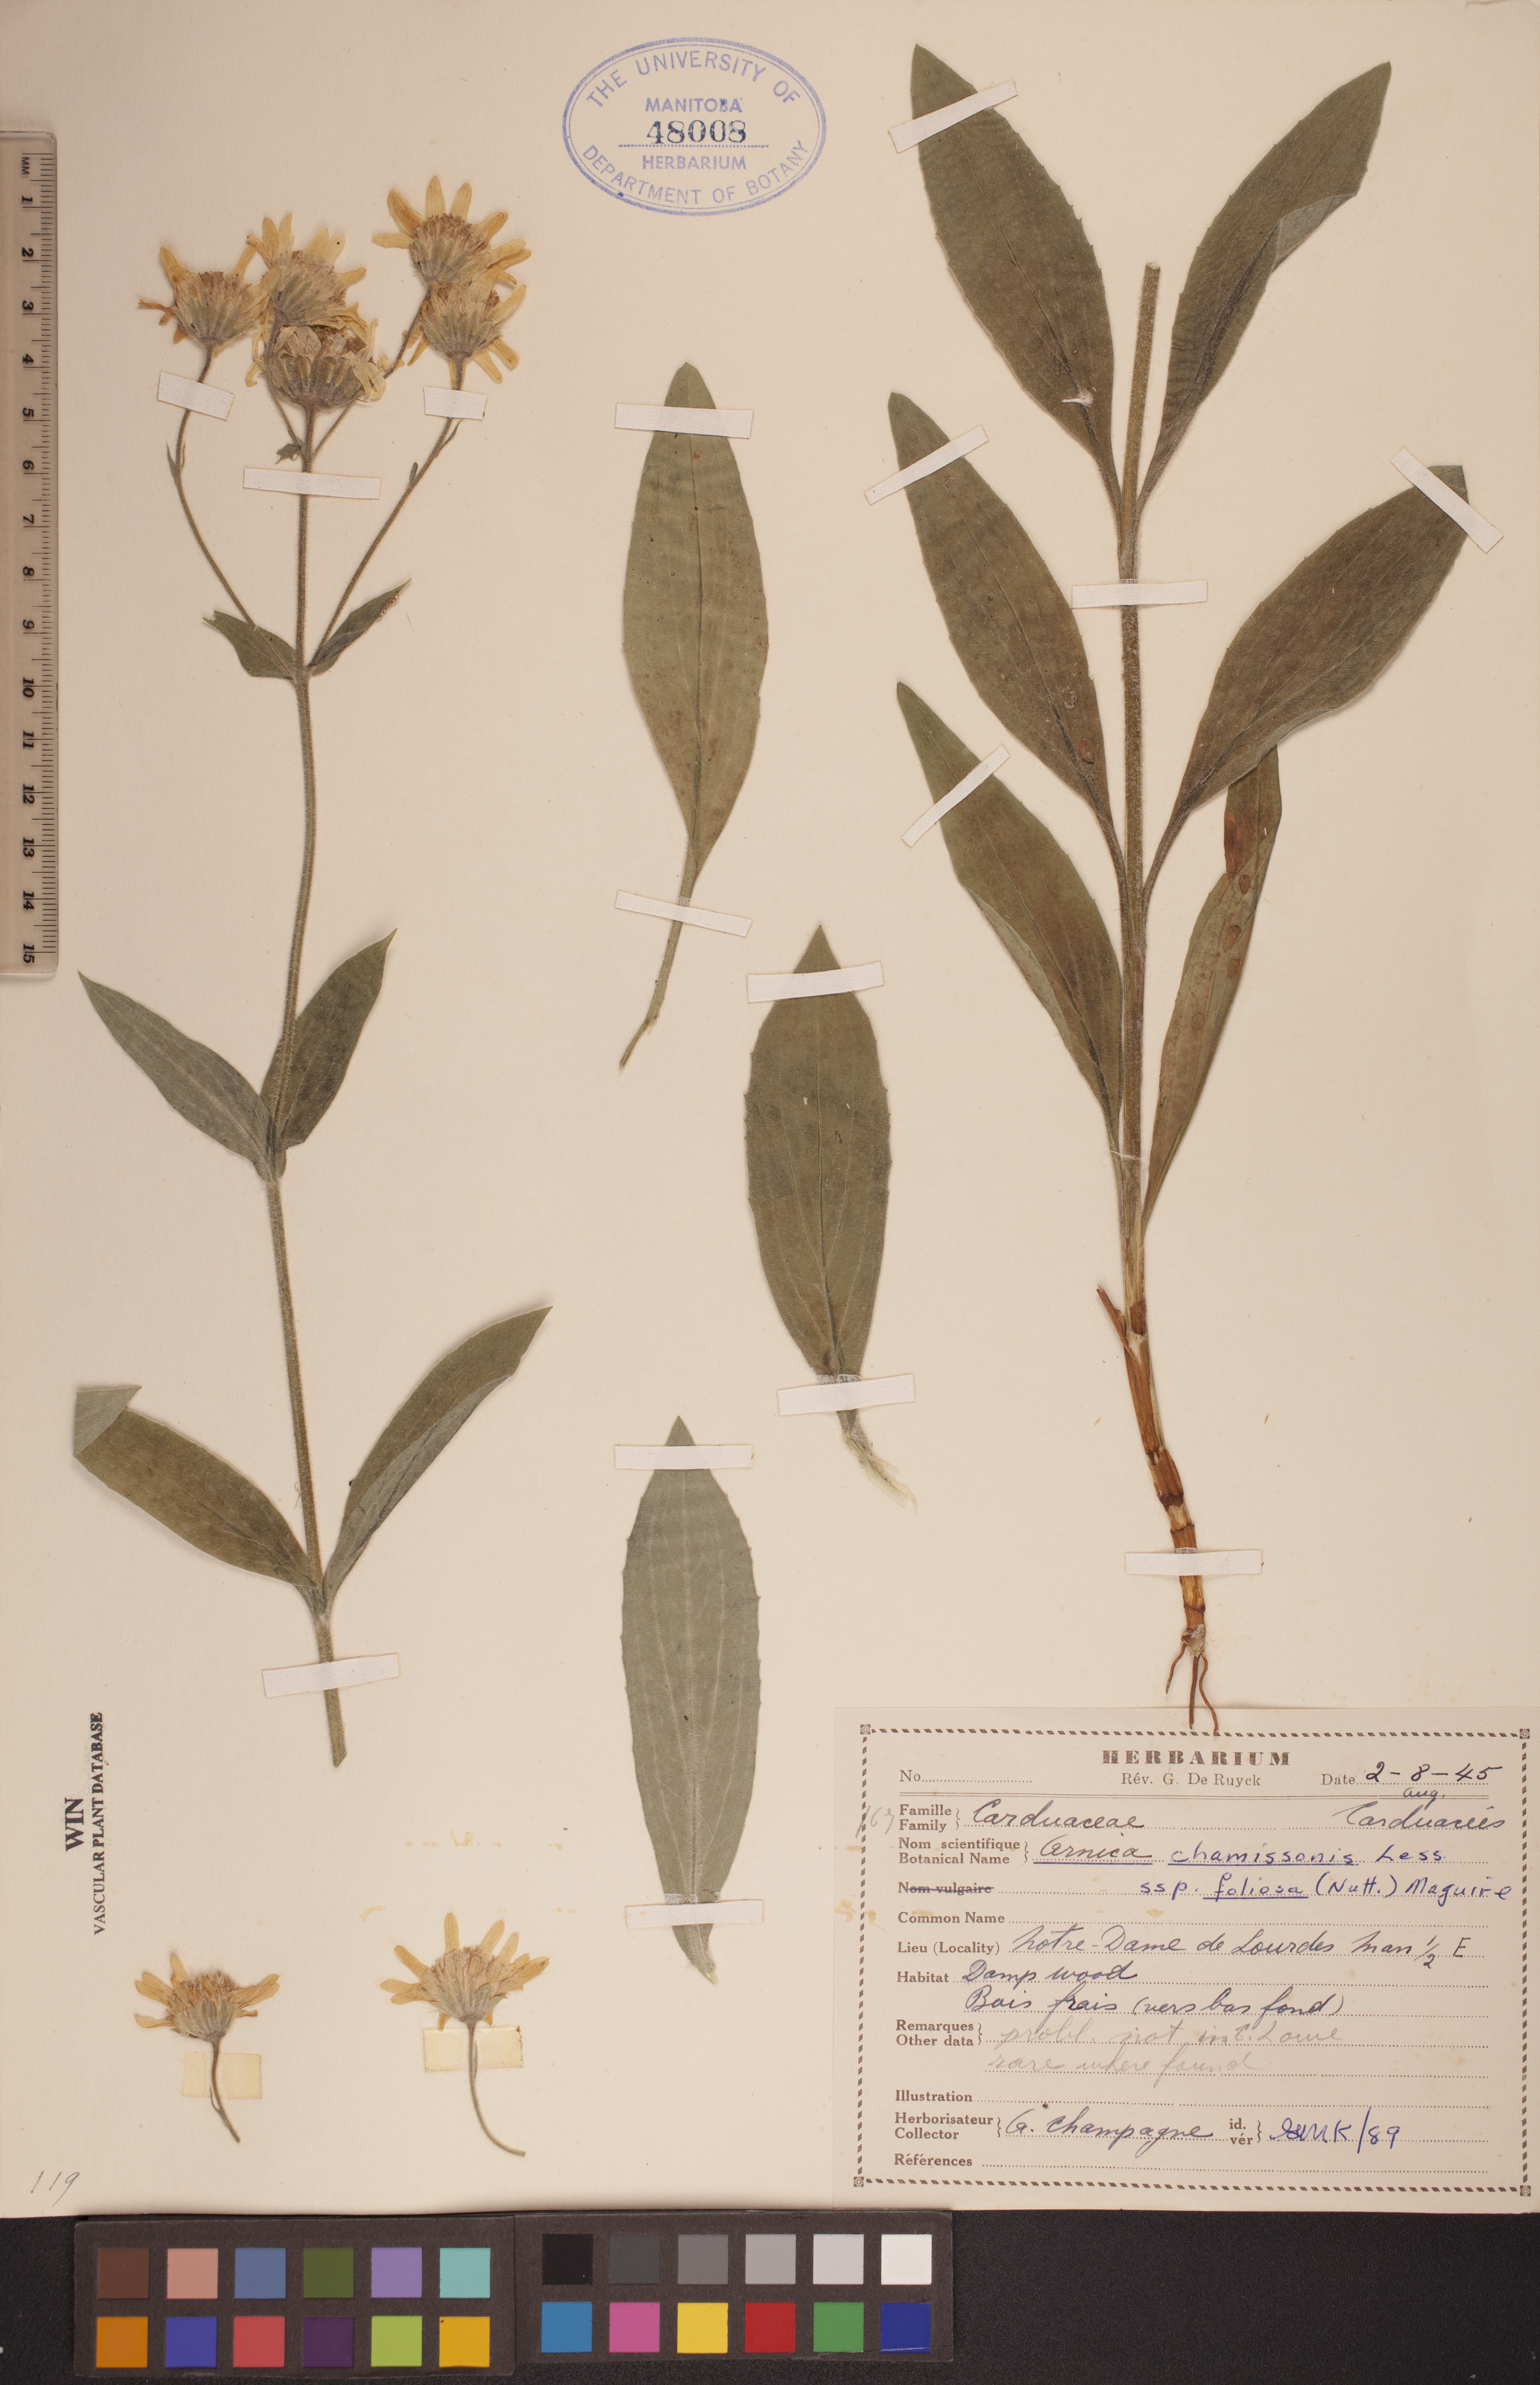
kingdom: Plantae
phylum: Tracheophyta
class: Magnoliopsida
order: Asterales
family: Asteraceae
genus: Arnica
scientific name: Arnica chamissonis
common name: Leafy arnica
